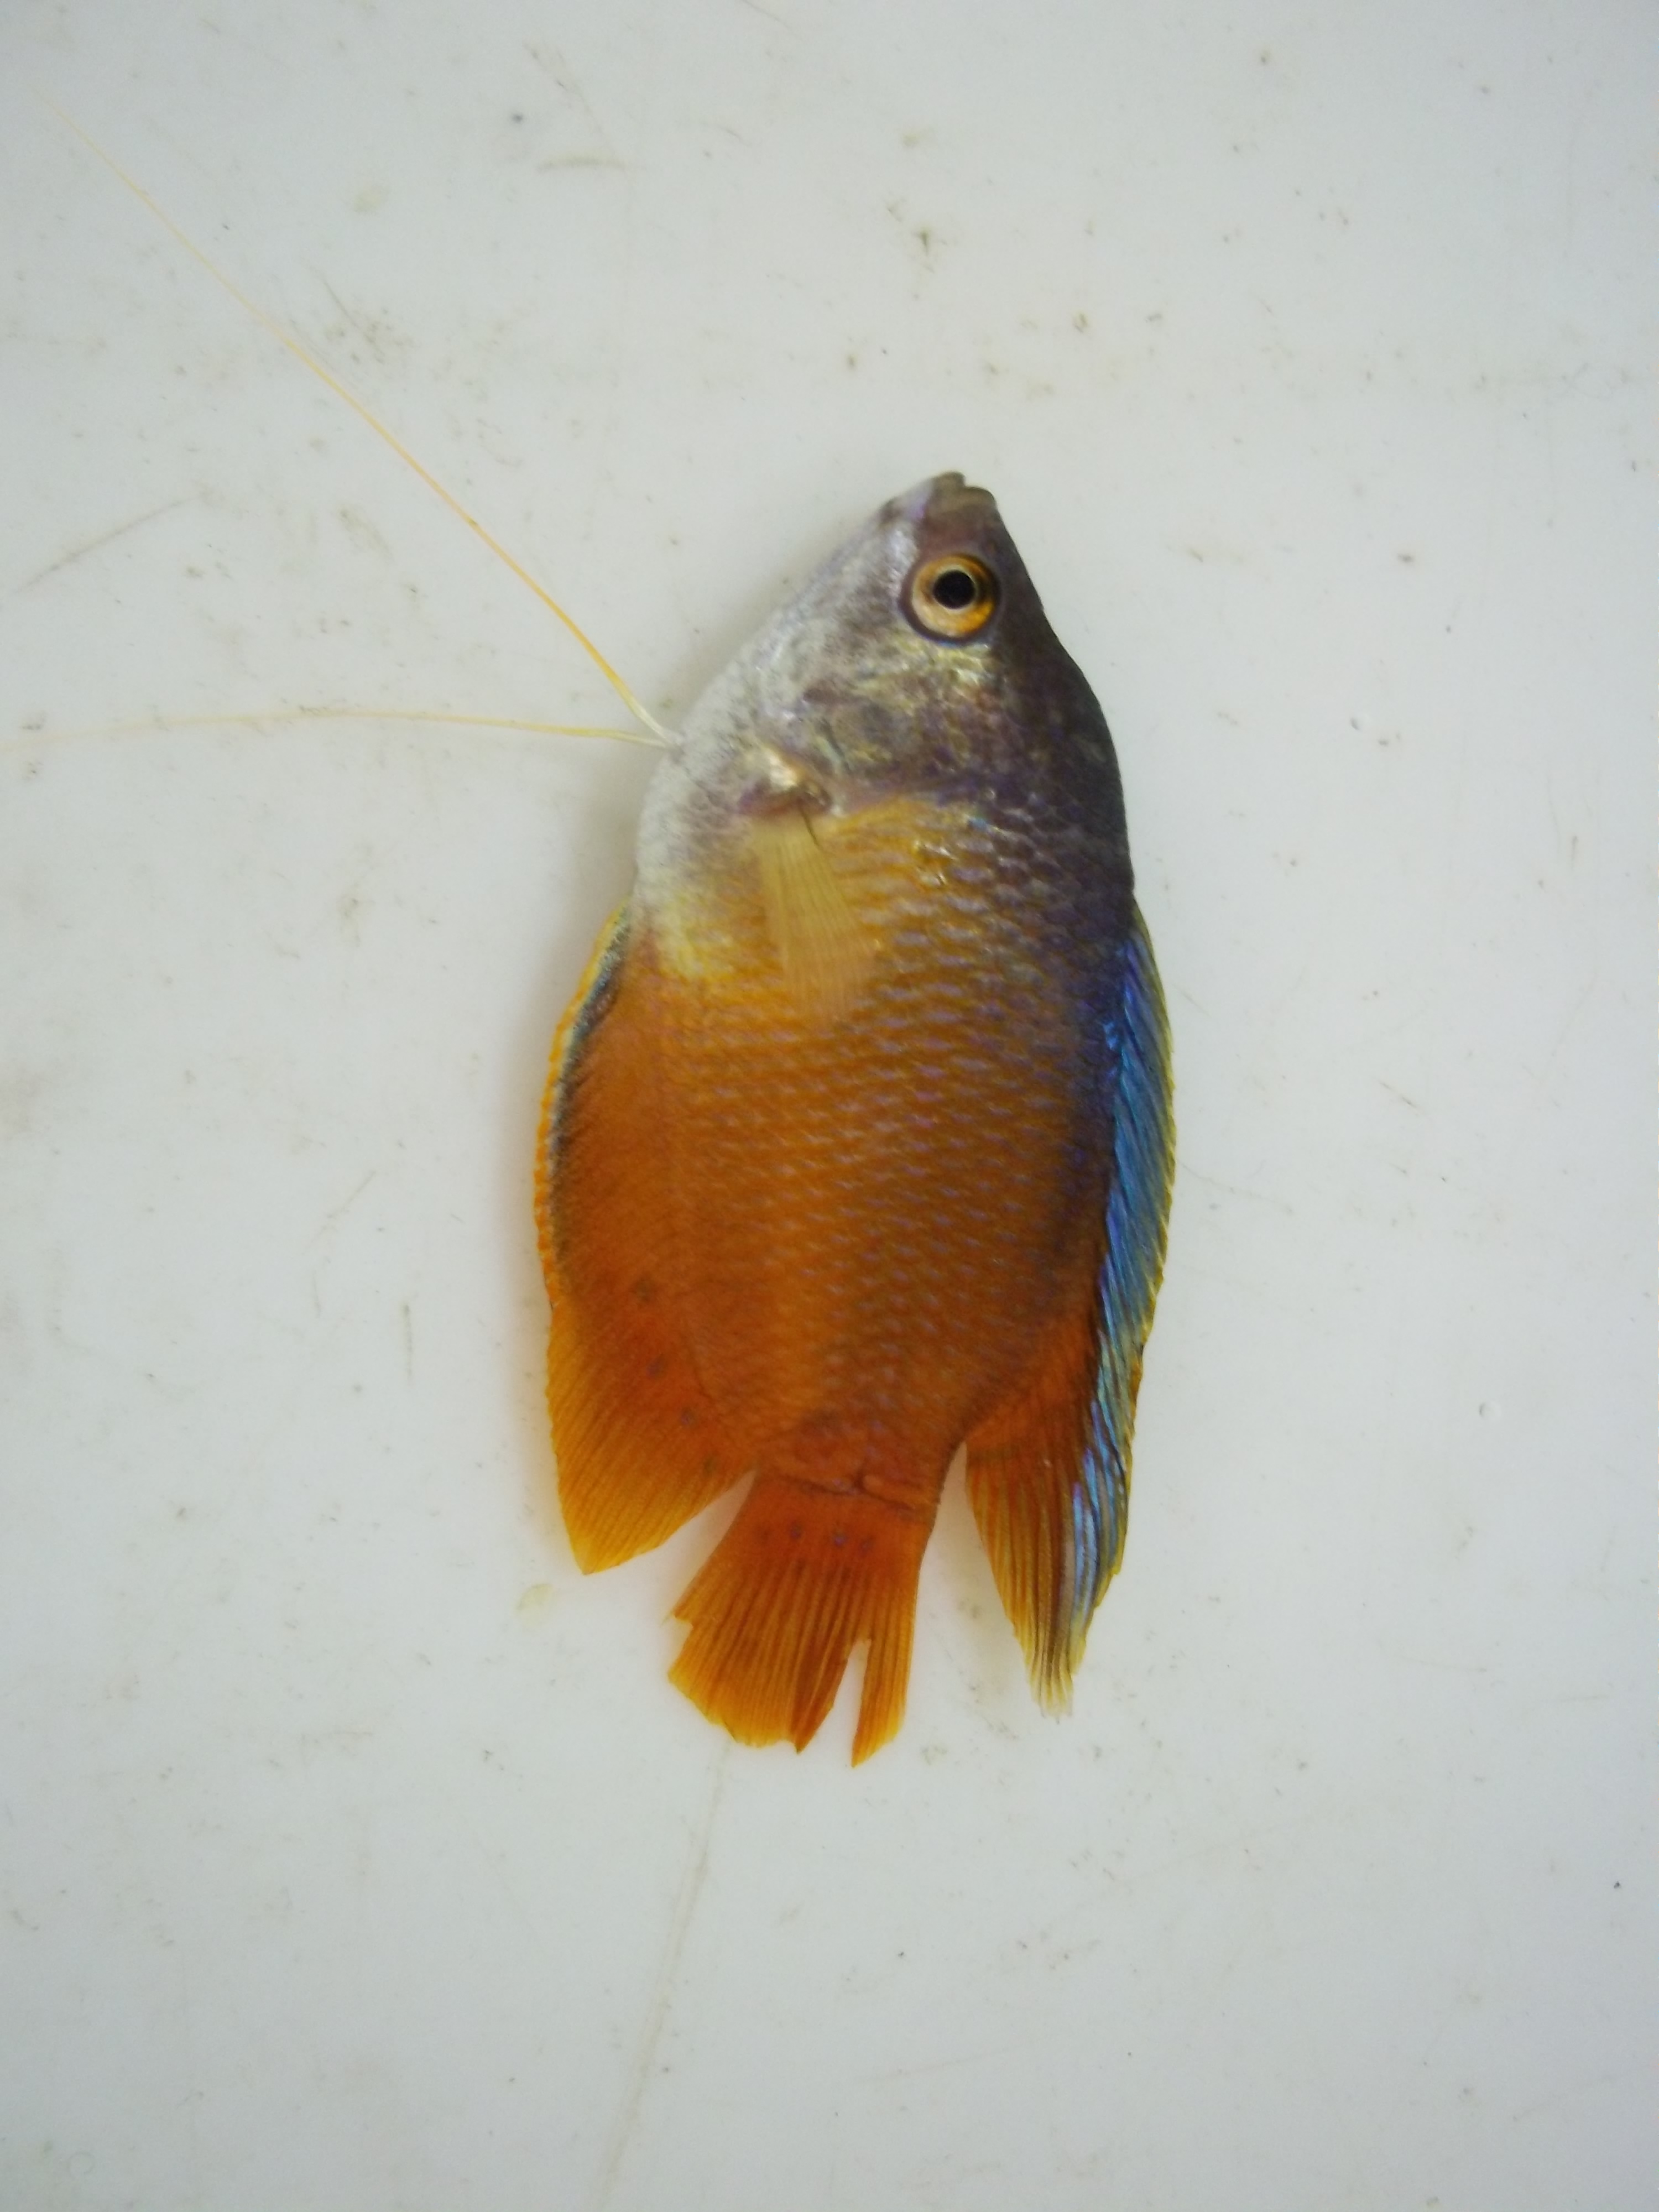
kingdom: Animalia
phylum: Chordata
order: Perciformes
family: Osphronemidae
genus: Trichogaster
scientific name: Trichogaster lalius
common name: Dwarf gourami
